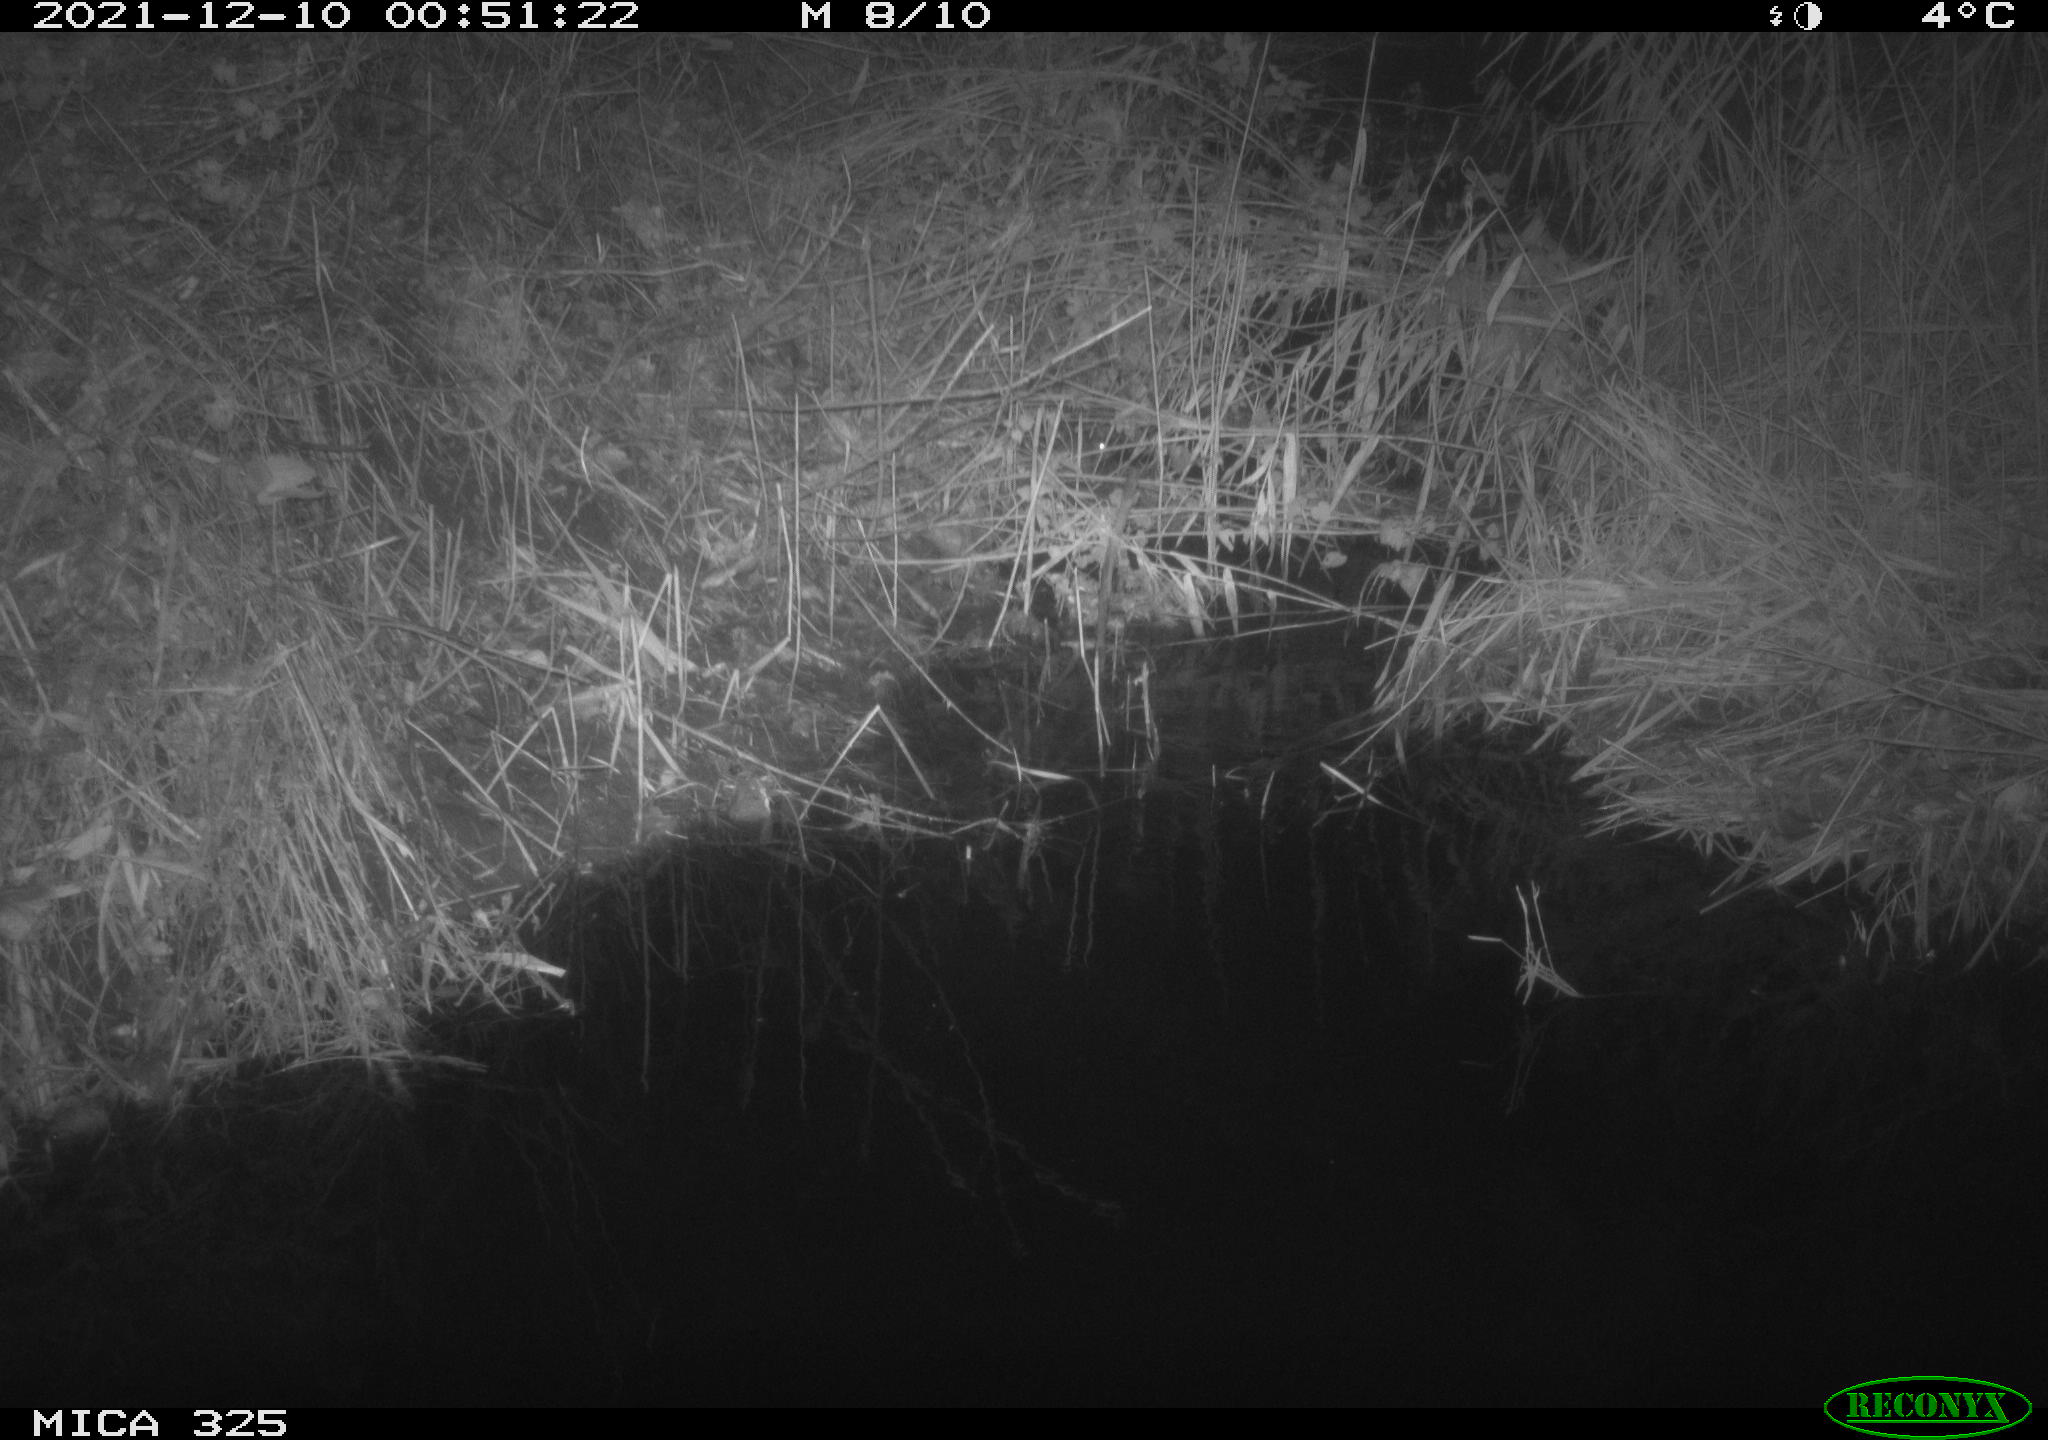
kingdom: Animalia
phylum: Chordata
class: Mammalia
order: Rodentia
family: Muridae
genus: Rattus
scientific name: Rattus norvegicus
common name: Brown rat
